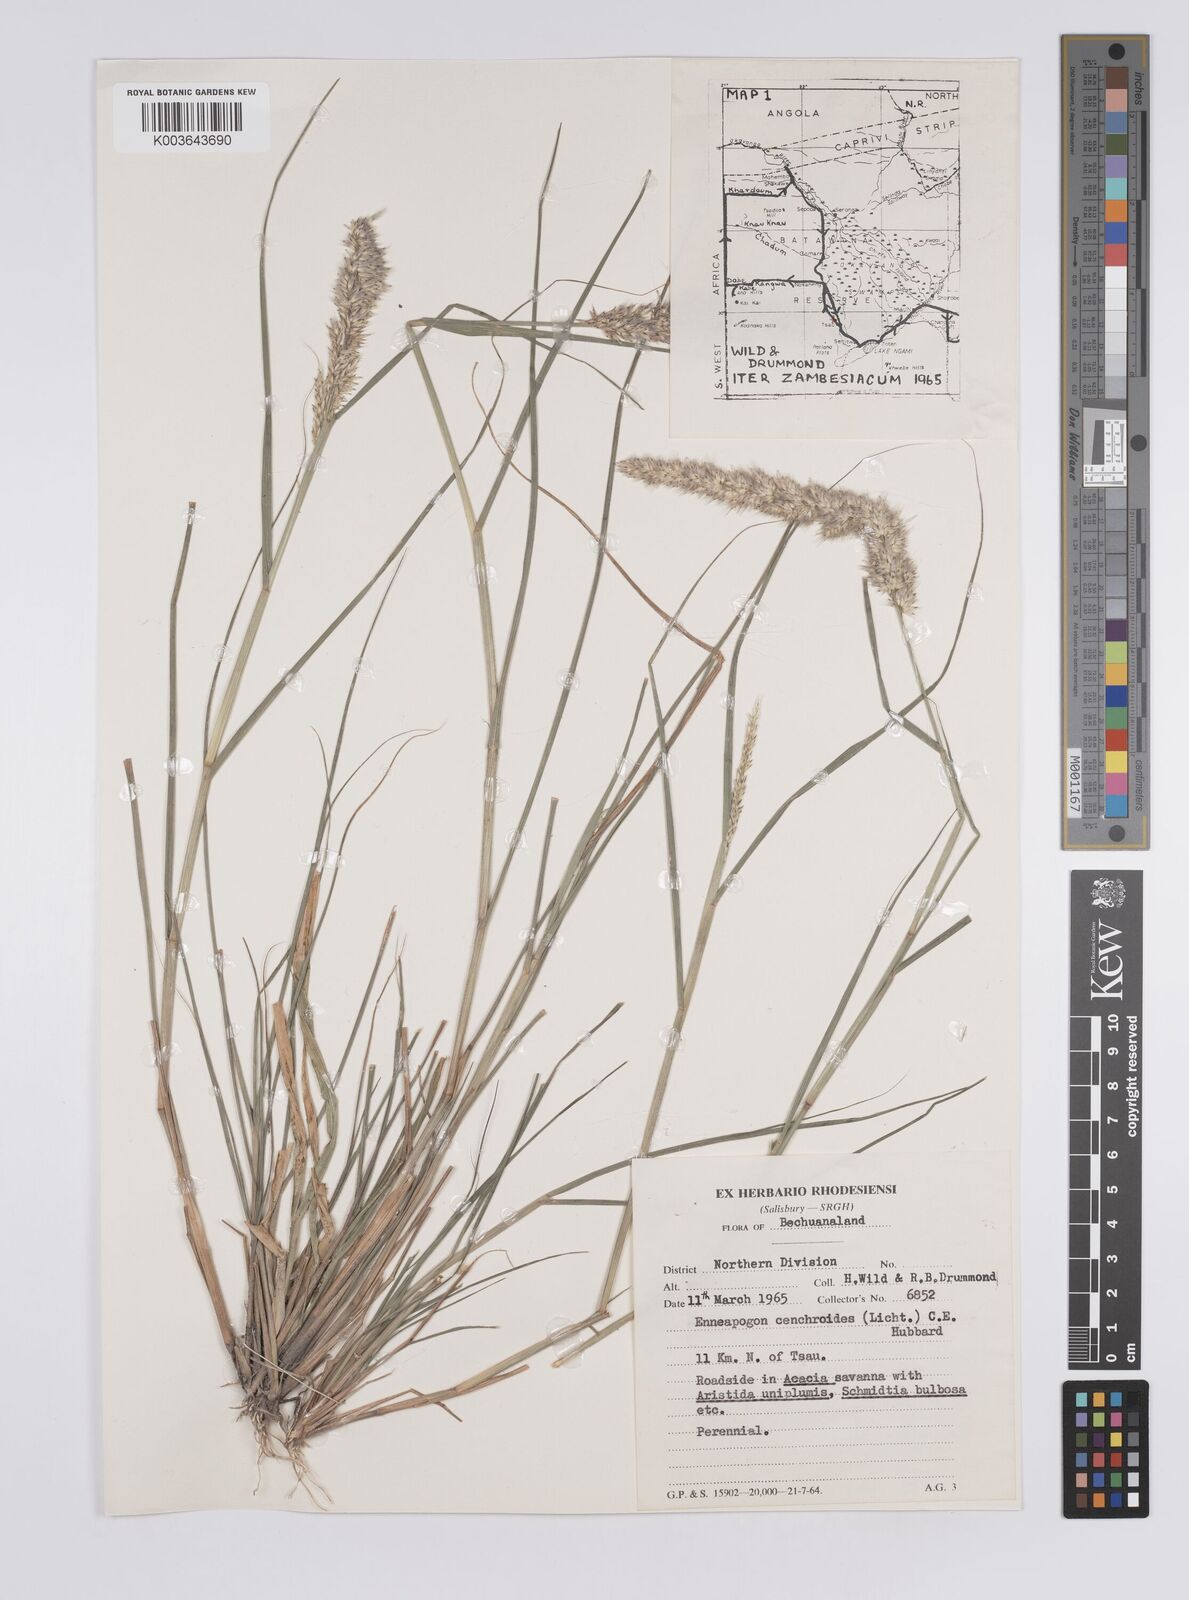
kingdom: Plantae
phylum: Tracheophyta
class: Liliopsida
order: Poales
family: Poaceae
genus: Enneapogon
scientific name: Enneapogon cenchroides
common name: Soft feather pappusgrass
